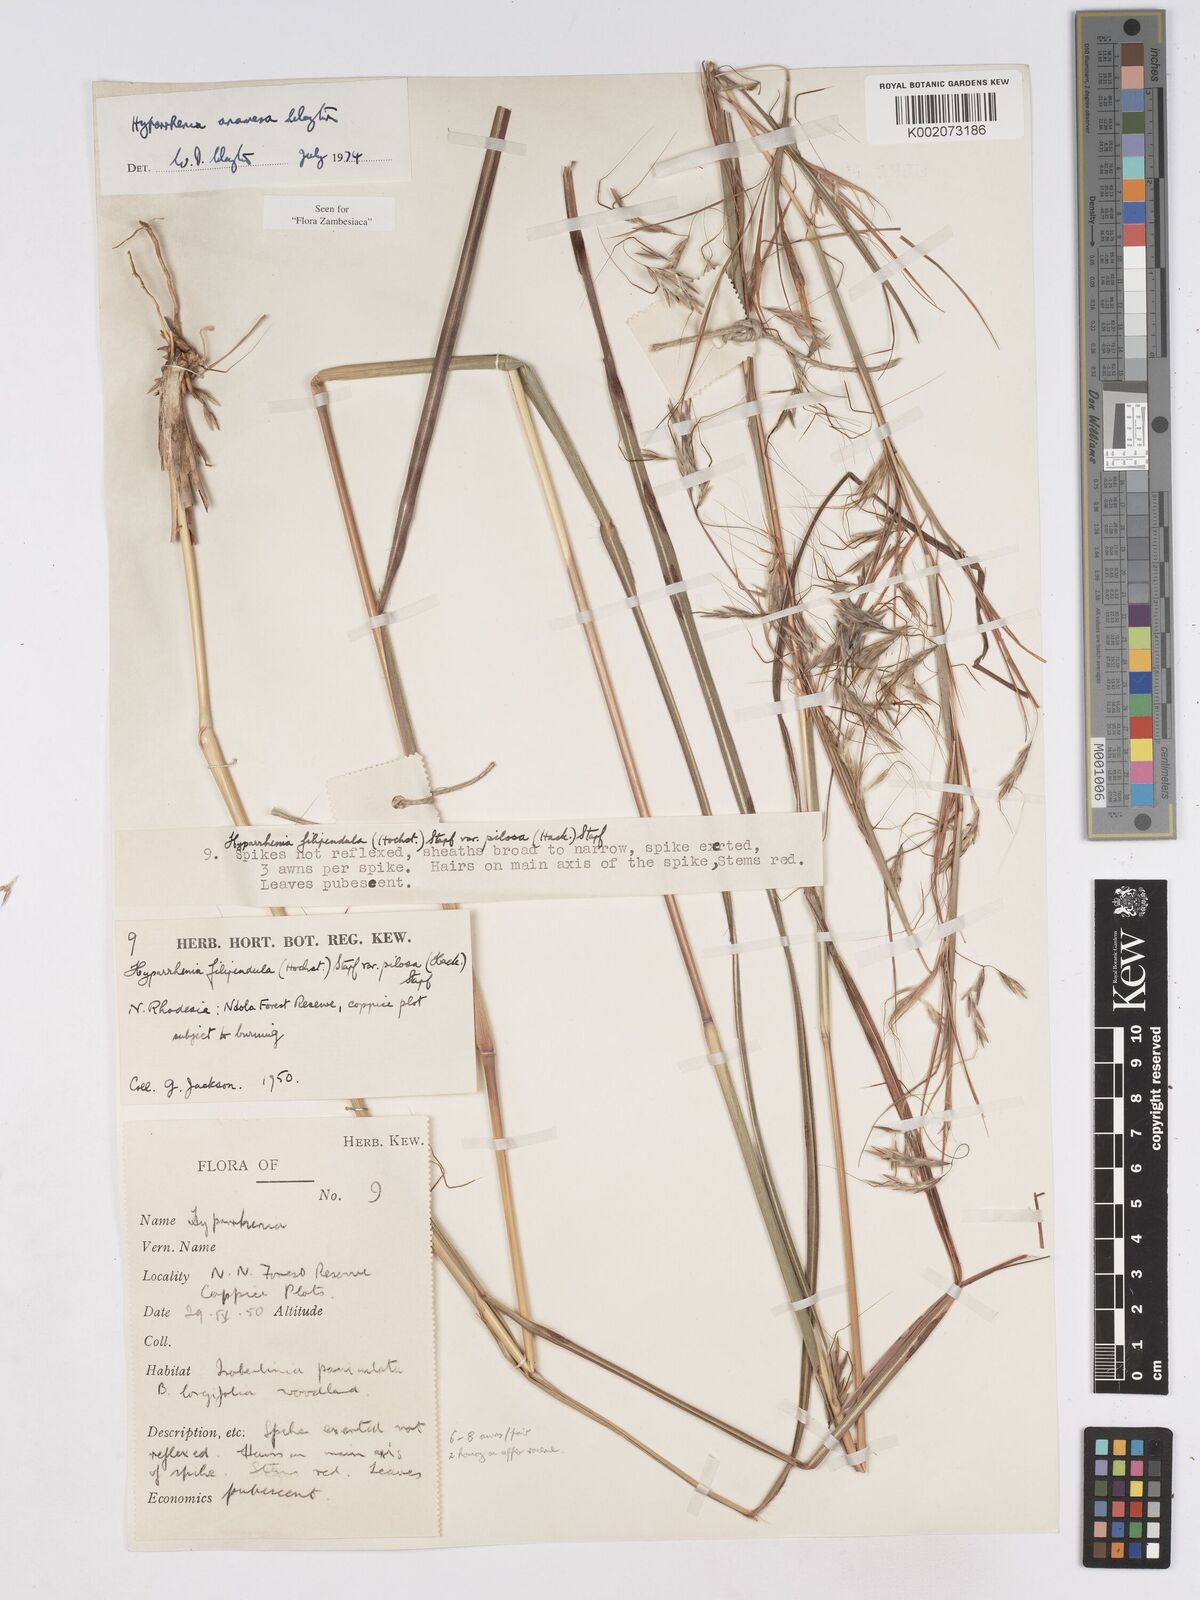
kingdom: Plantae
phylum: Tracheophyta
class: Liliopsida
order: Poales
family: Poaceae
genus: Hyparrhenia
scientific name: Hyparrhenia anamesa
